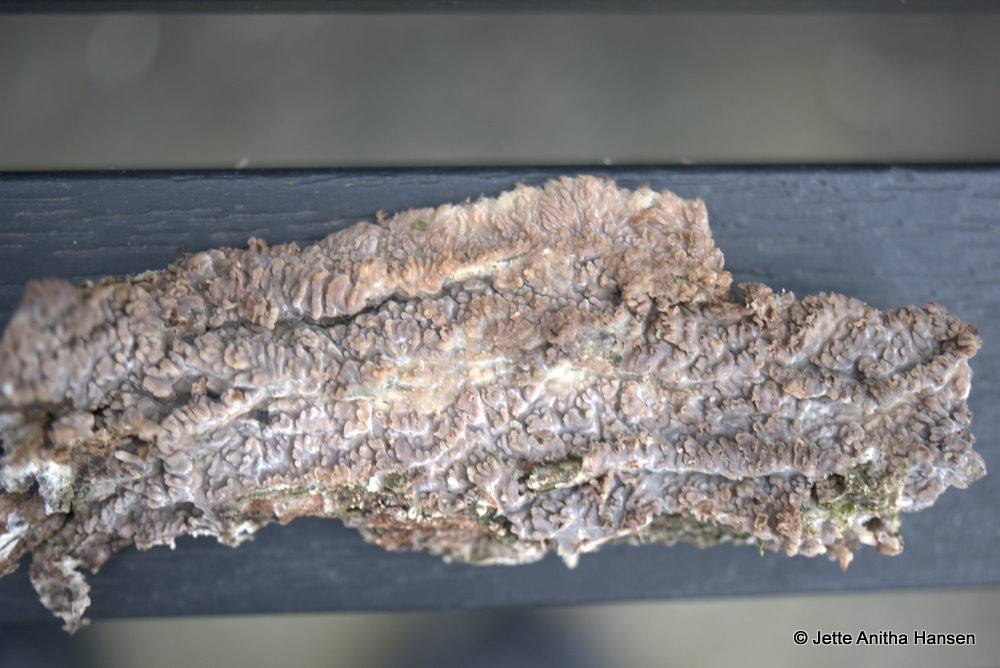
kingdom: Fungi
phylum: Basidiomycota
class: Agaricomycetes
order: Polyporales
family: Meruliaceae
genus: Phlebia
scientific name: Phlebia radiata
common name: stråle-åresvamp
